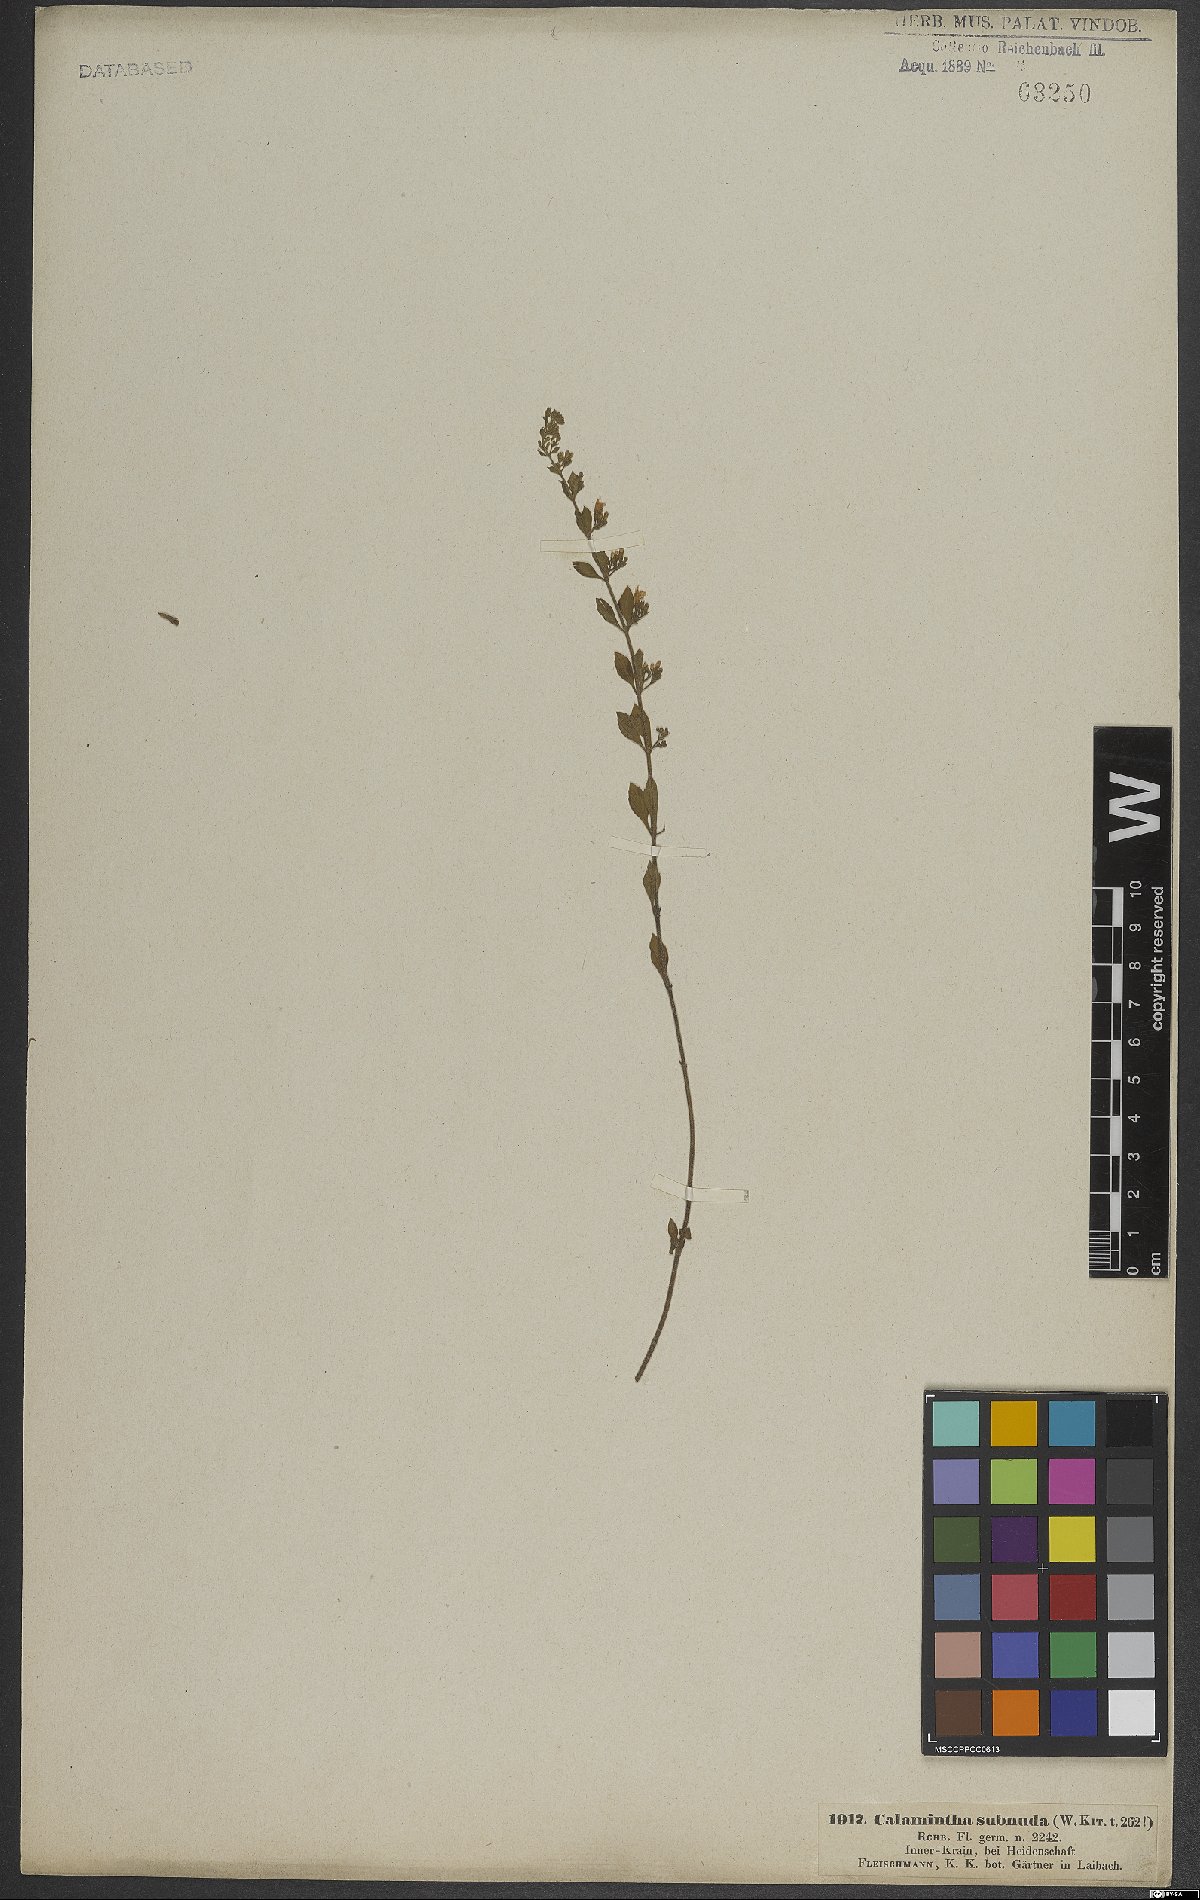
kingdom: Plantae
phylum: Tracheophyta
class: Magnoliopsida
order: Lamiales
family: Lamiaceae
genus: Clinopodium
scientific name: Clinopodium nepeta
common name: Lesser calamint
